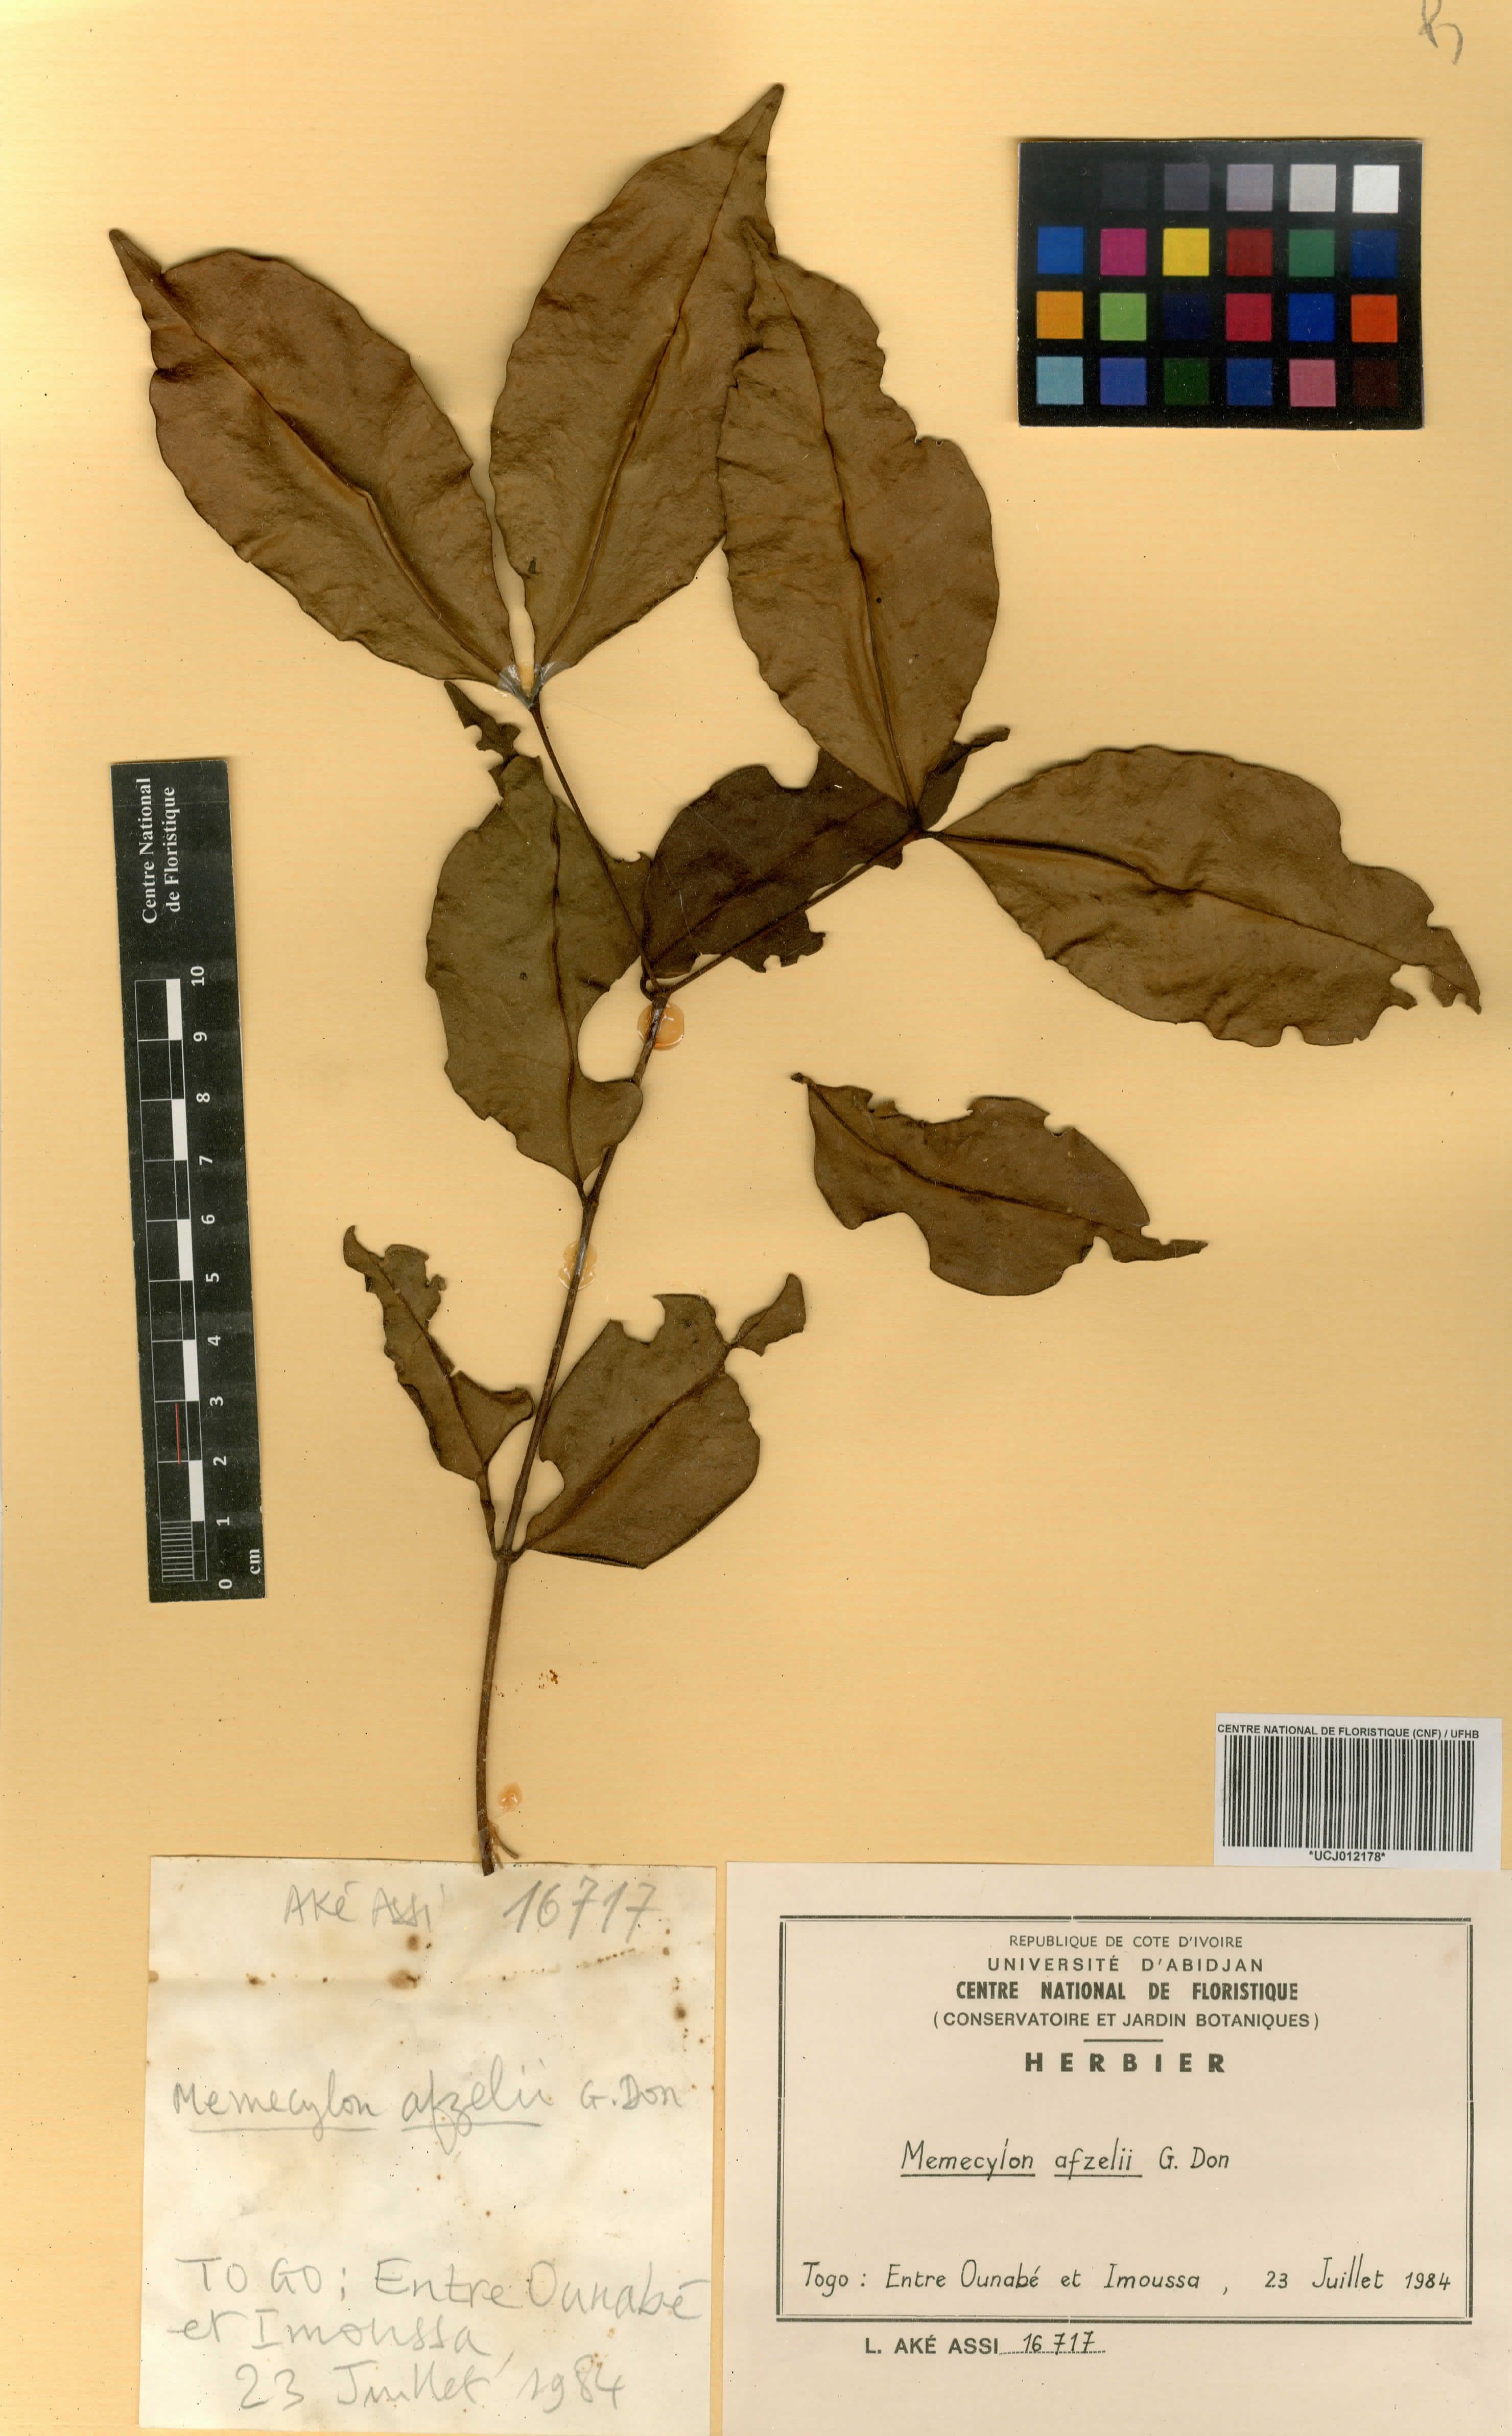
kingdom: Plantae
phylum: Tracheophyta
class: Magnoliopsida
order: Myrtales
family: Melastomataceae
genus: Memecylon
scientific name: Memecylon afzelii
